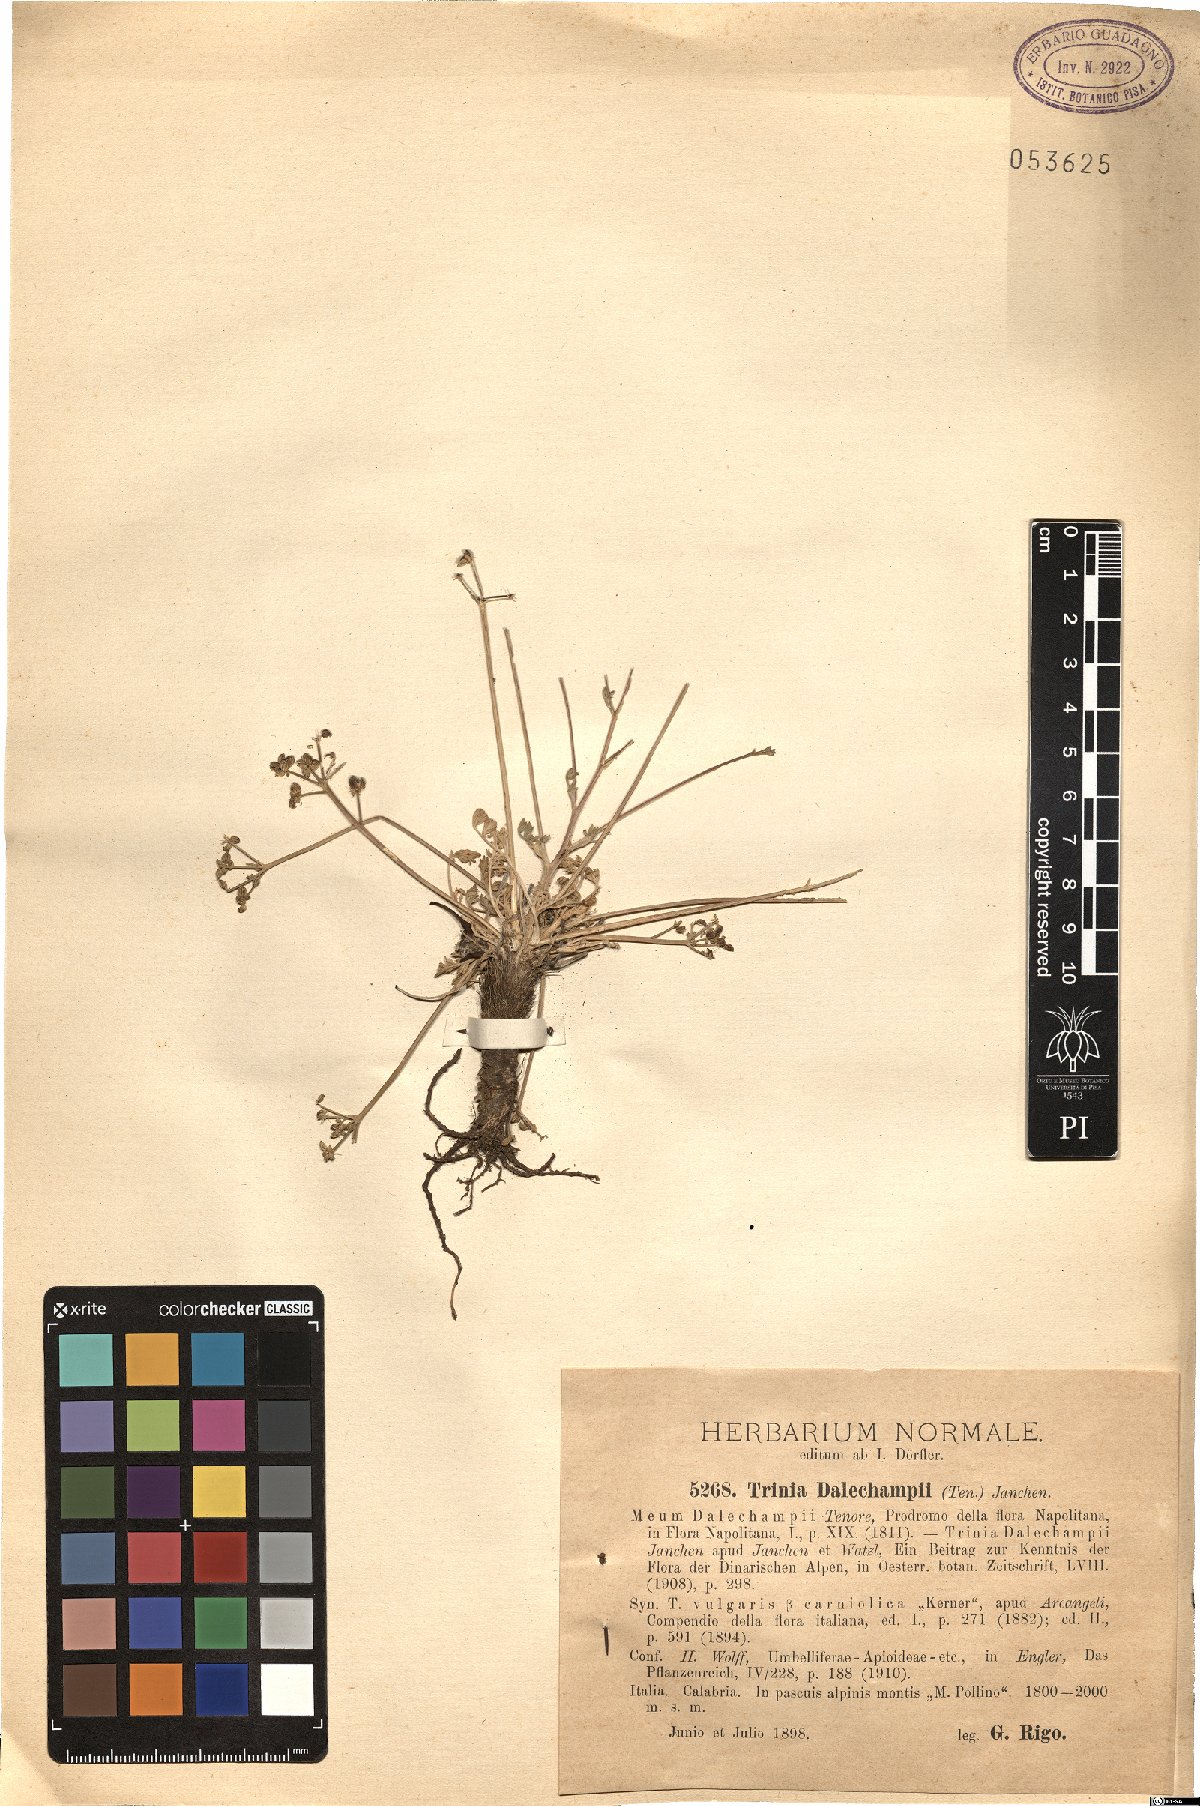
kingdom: Plantae
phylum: Tracheophyta
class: Magnoliopsida
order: Apiales
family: Apiaceae
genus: Trinia
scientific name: Trinia dalechampii
